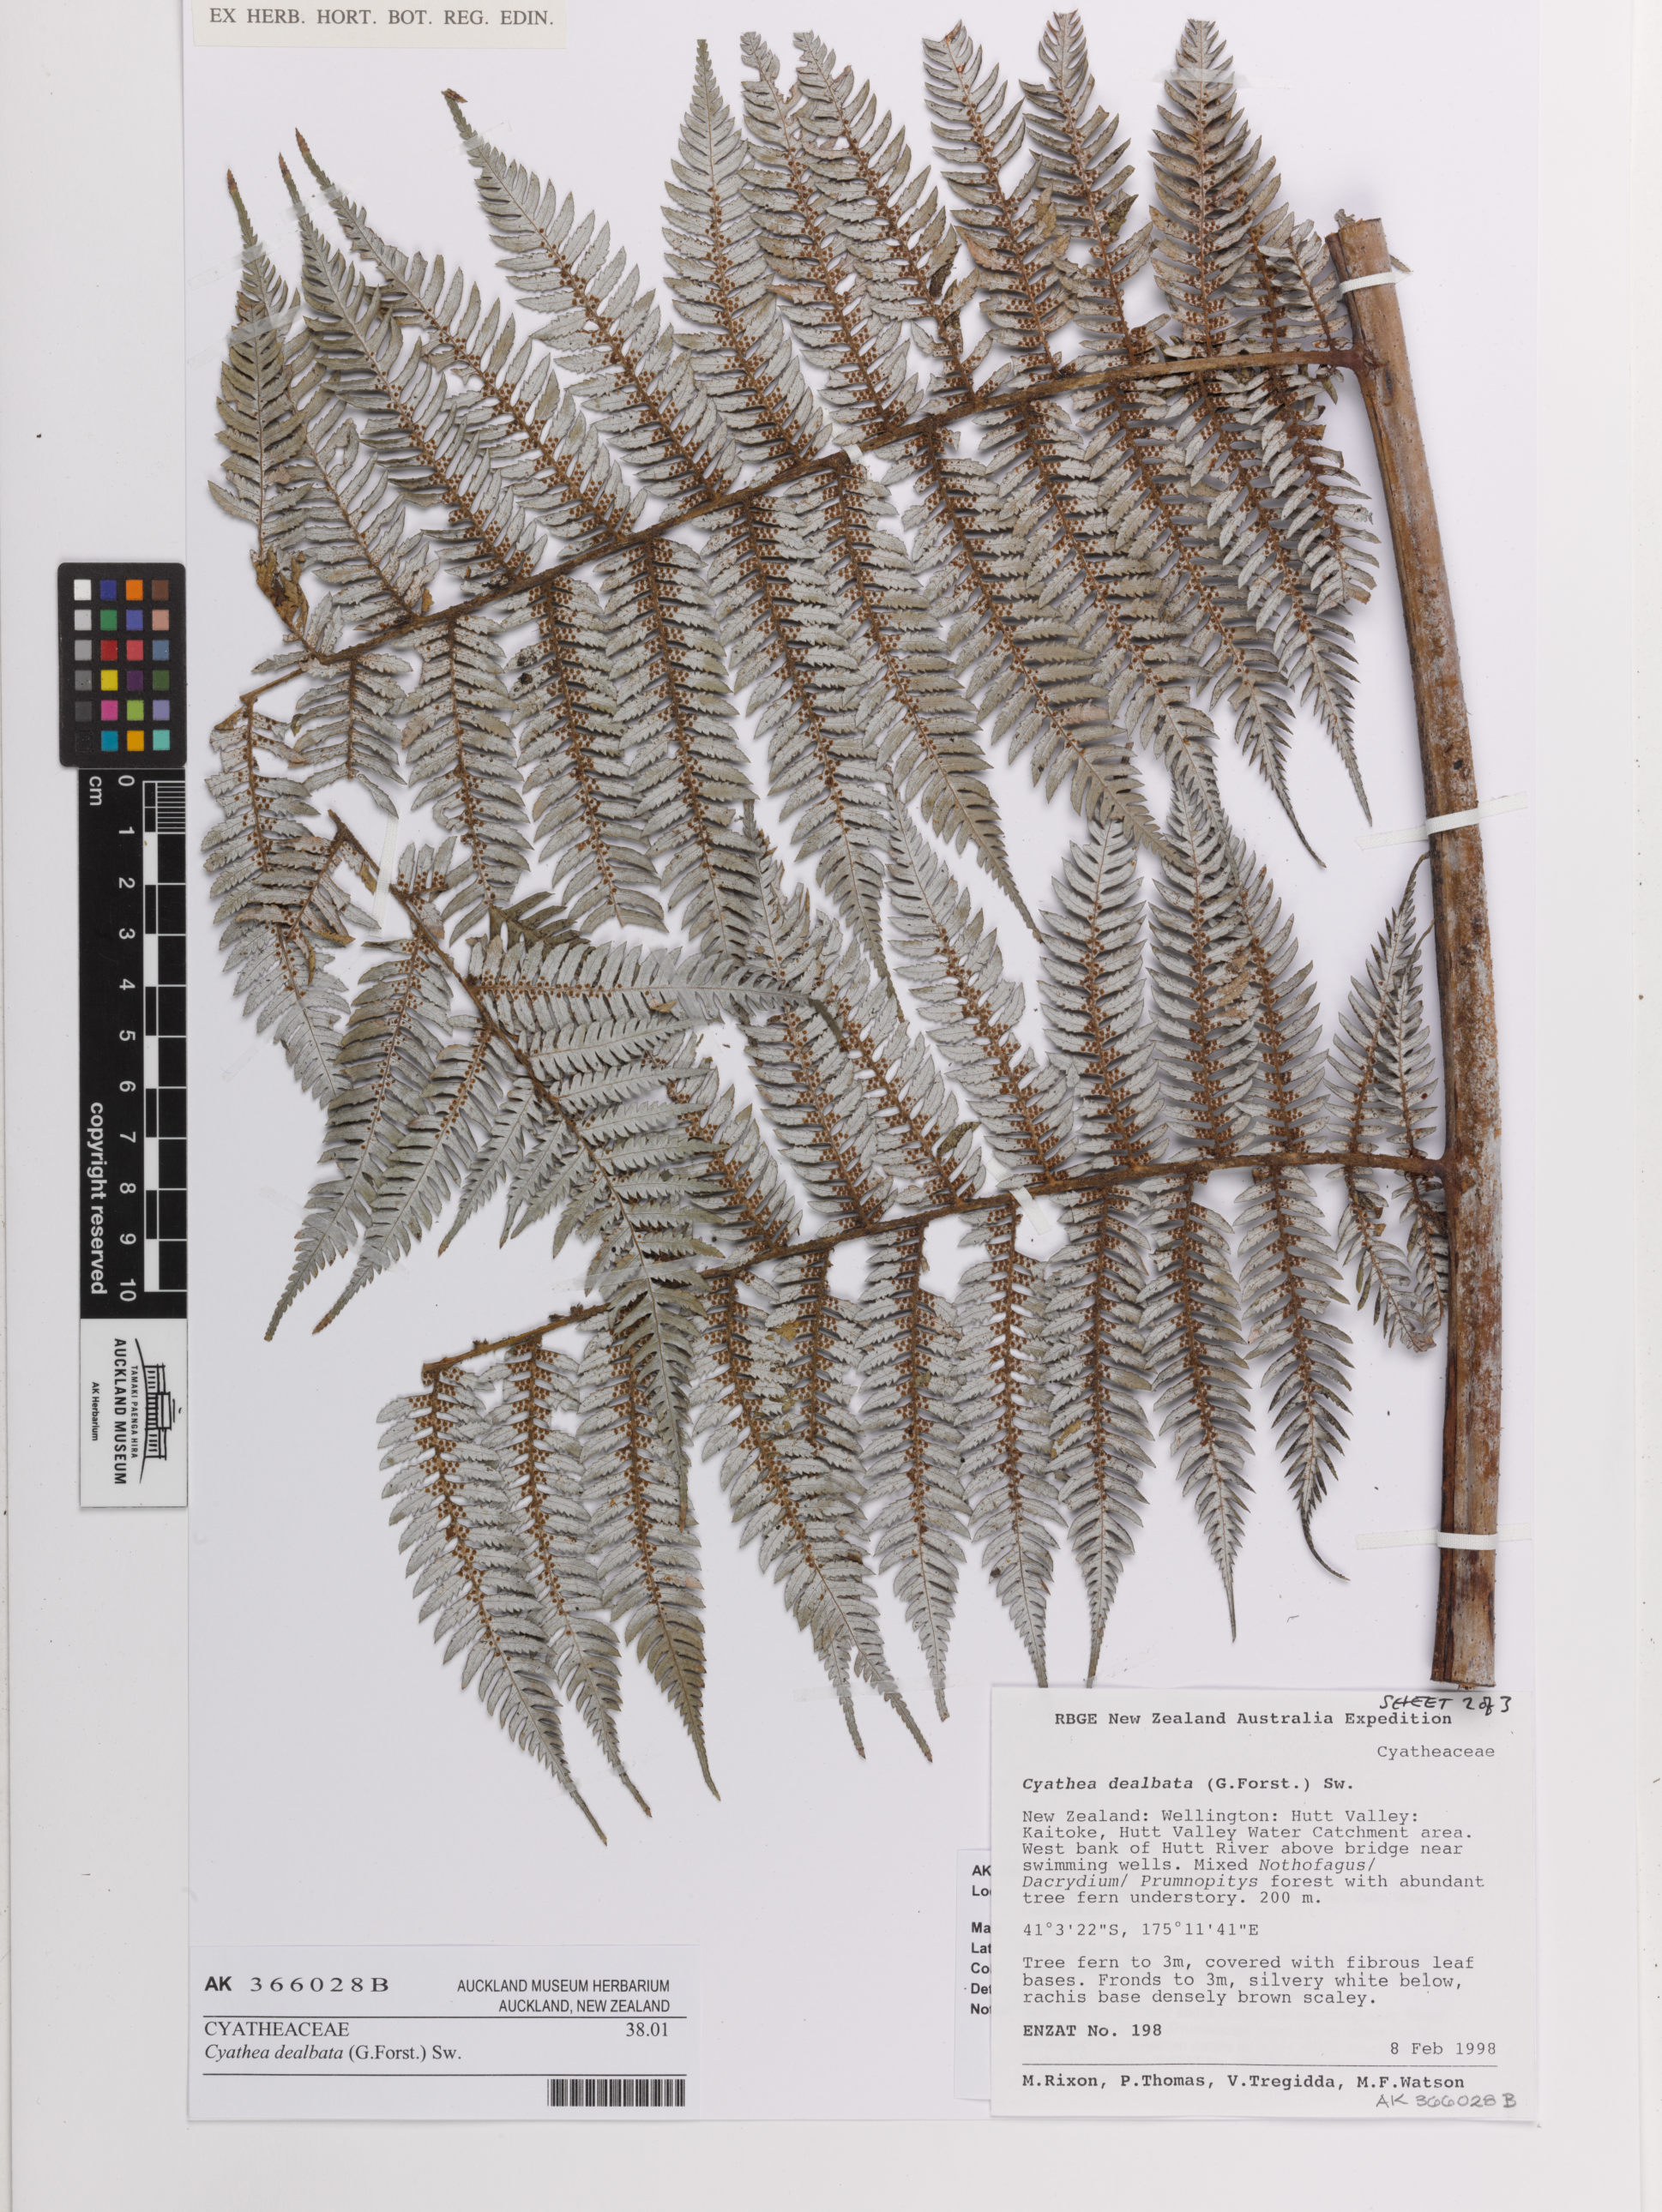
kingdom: Plantae
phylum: Tracheophyta
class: Polypodiopsida
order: Cyatheales
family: Cyatheaceae
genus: Alsophila
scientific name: Alsophila dealbata
